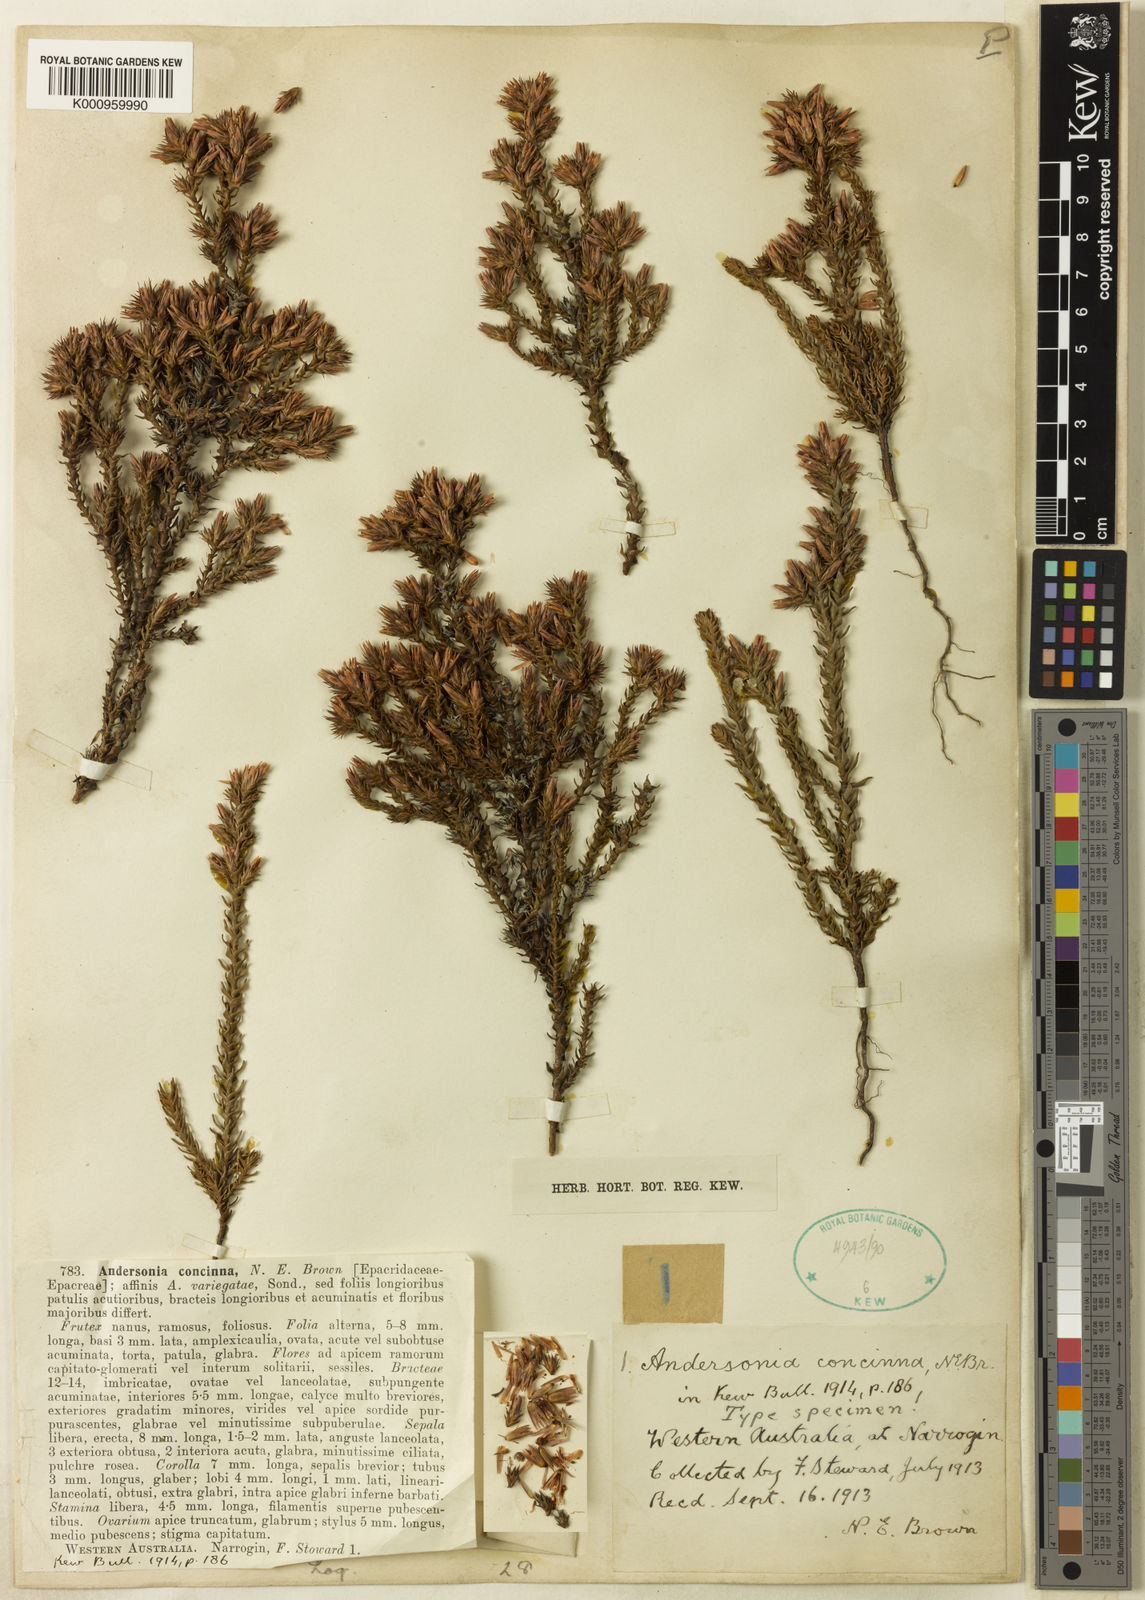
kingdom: Plantae
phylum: Tracheophyta
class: Magnoliopsida
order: Ericales
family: Ericaceae
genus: Andersonia
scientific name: Andersonia caerulea
